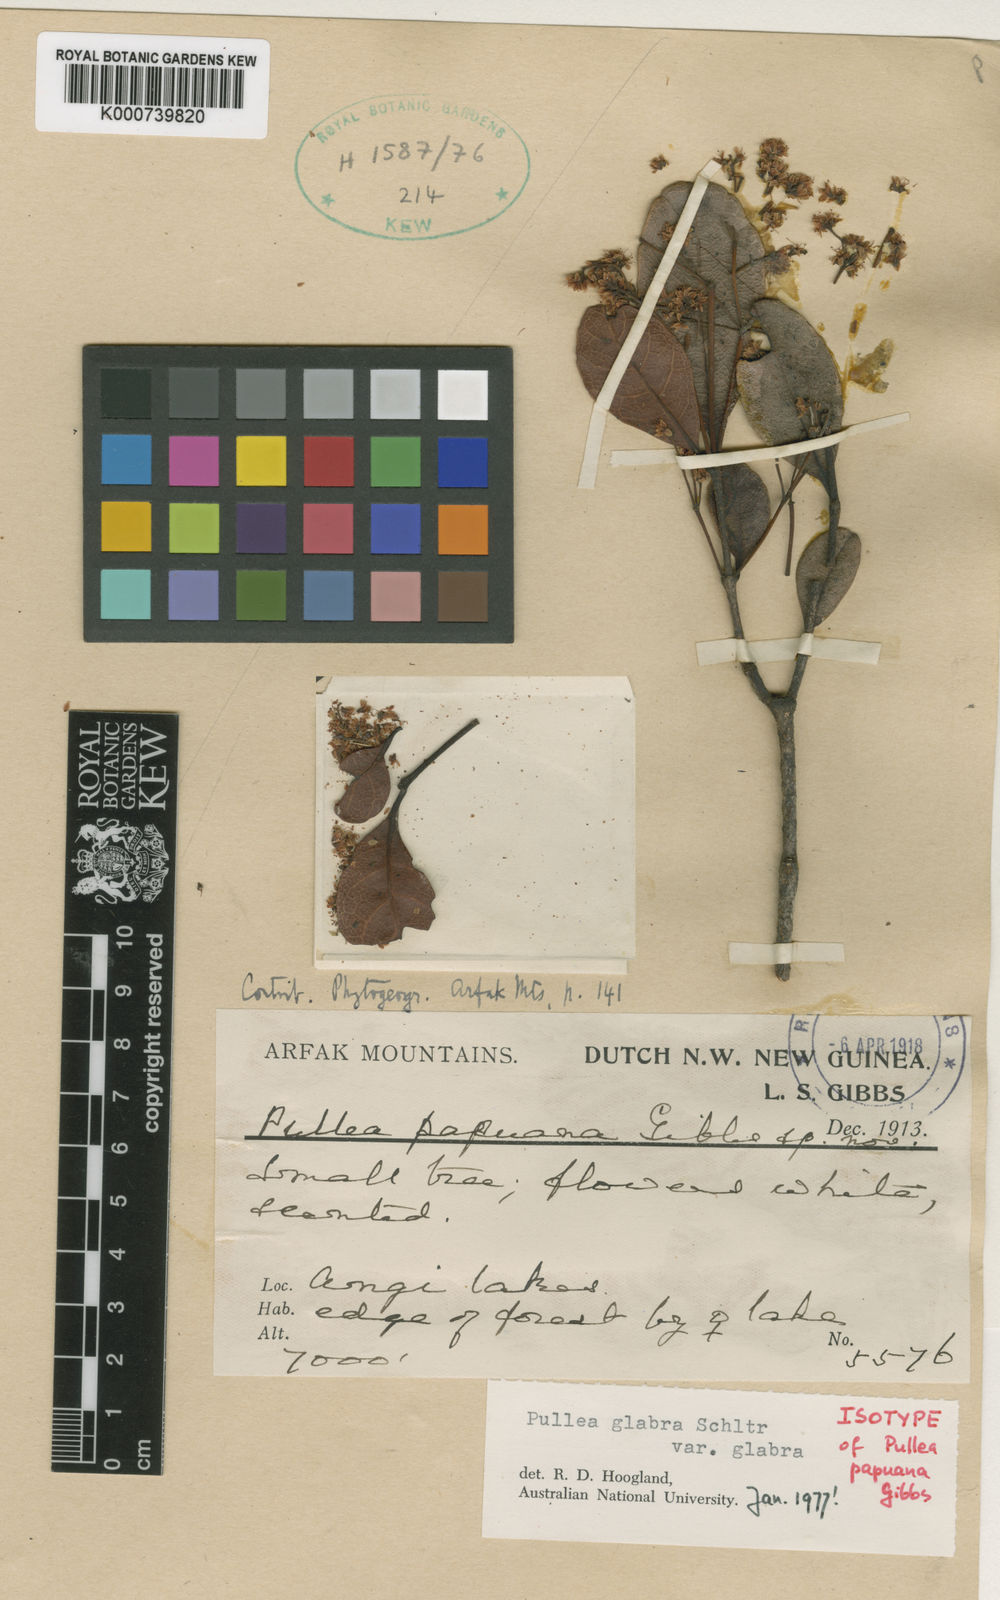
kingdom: Plantae
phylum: Tracheophyta
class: Magnoliopsida
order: Oxalidales
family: Cunoniaceae
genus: Pullea
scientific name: Pullea glabra
